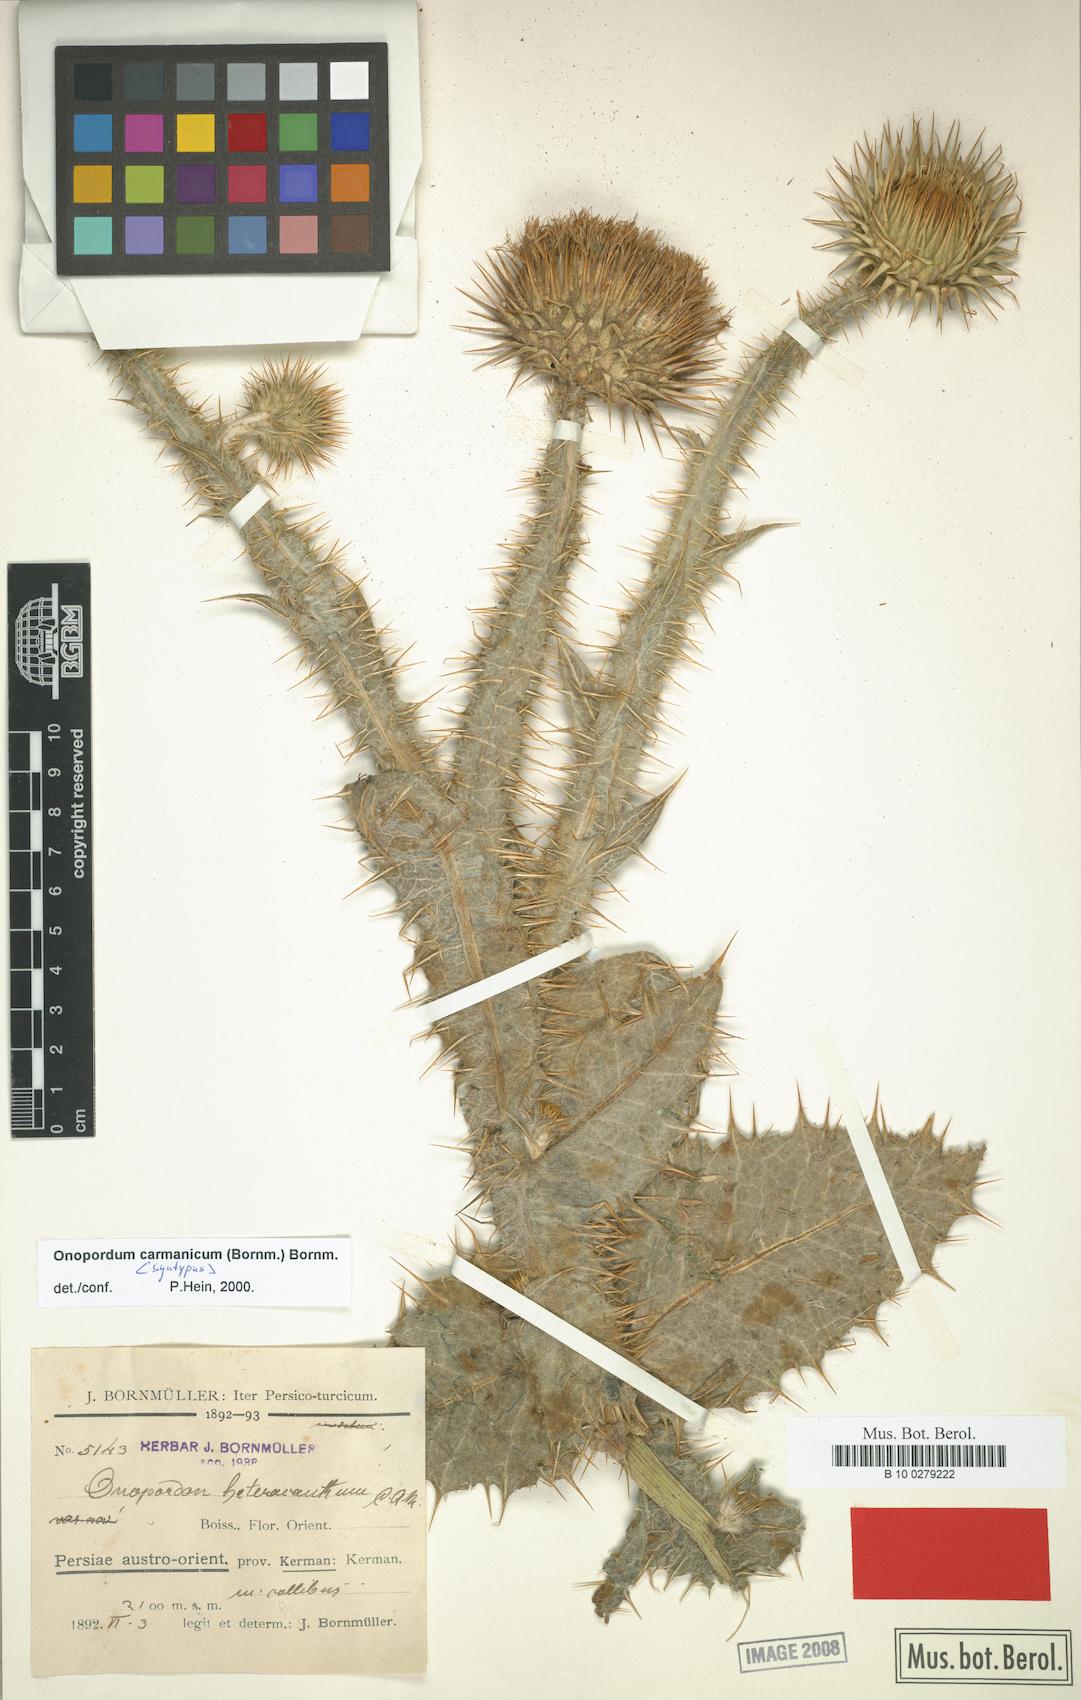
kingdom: Plantae
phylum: Tracheophyta
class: Magnoliopsida
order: Asterales
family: Asteraceae
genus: Onopordum
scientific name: Onopordum carmanicum
